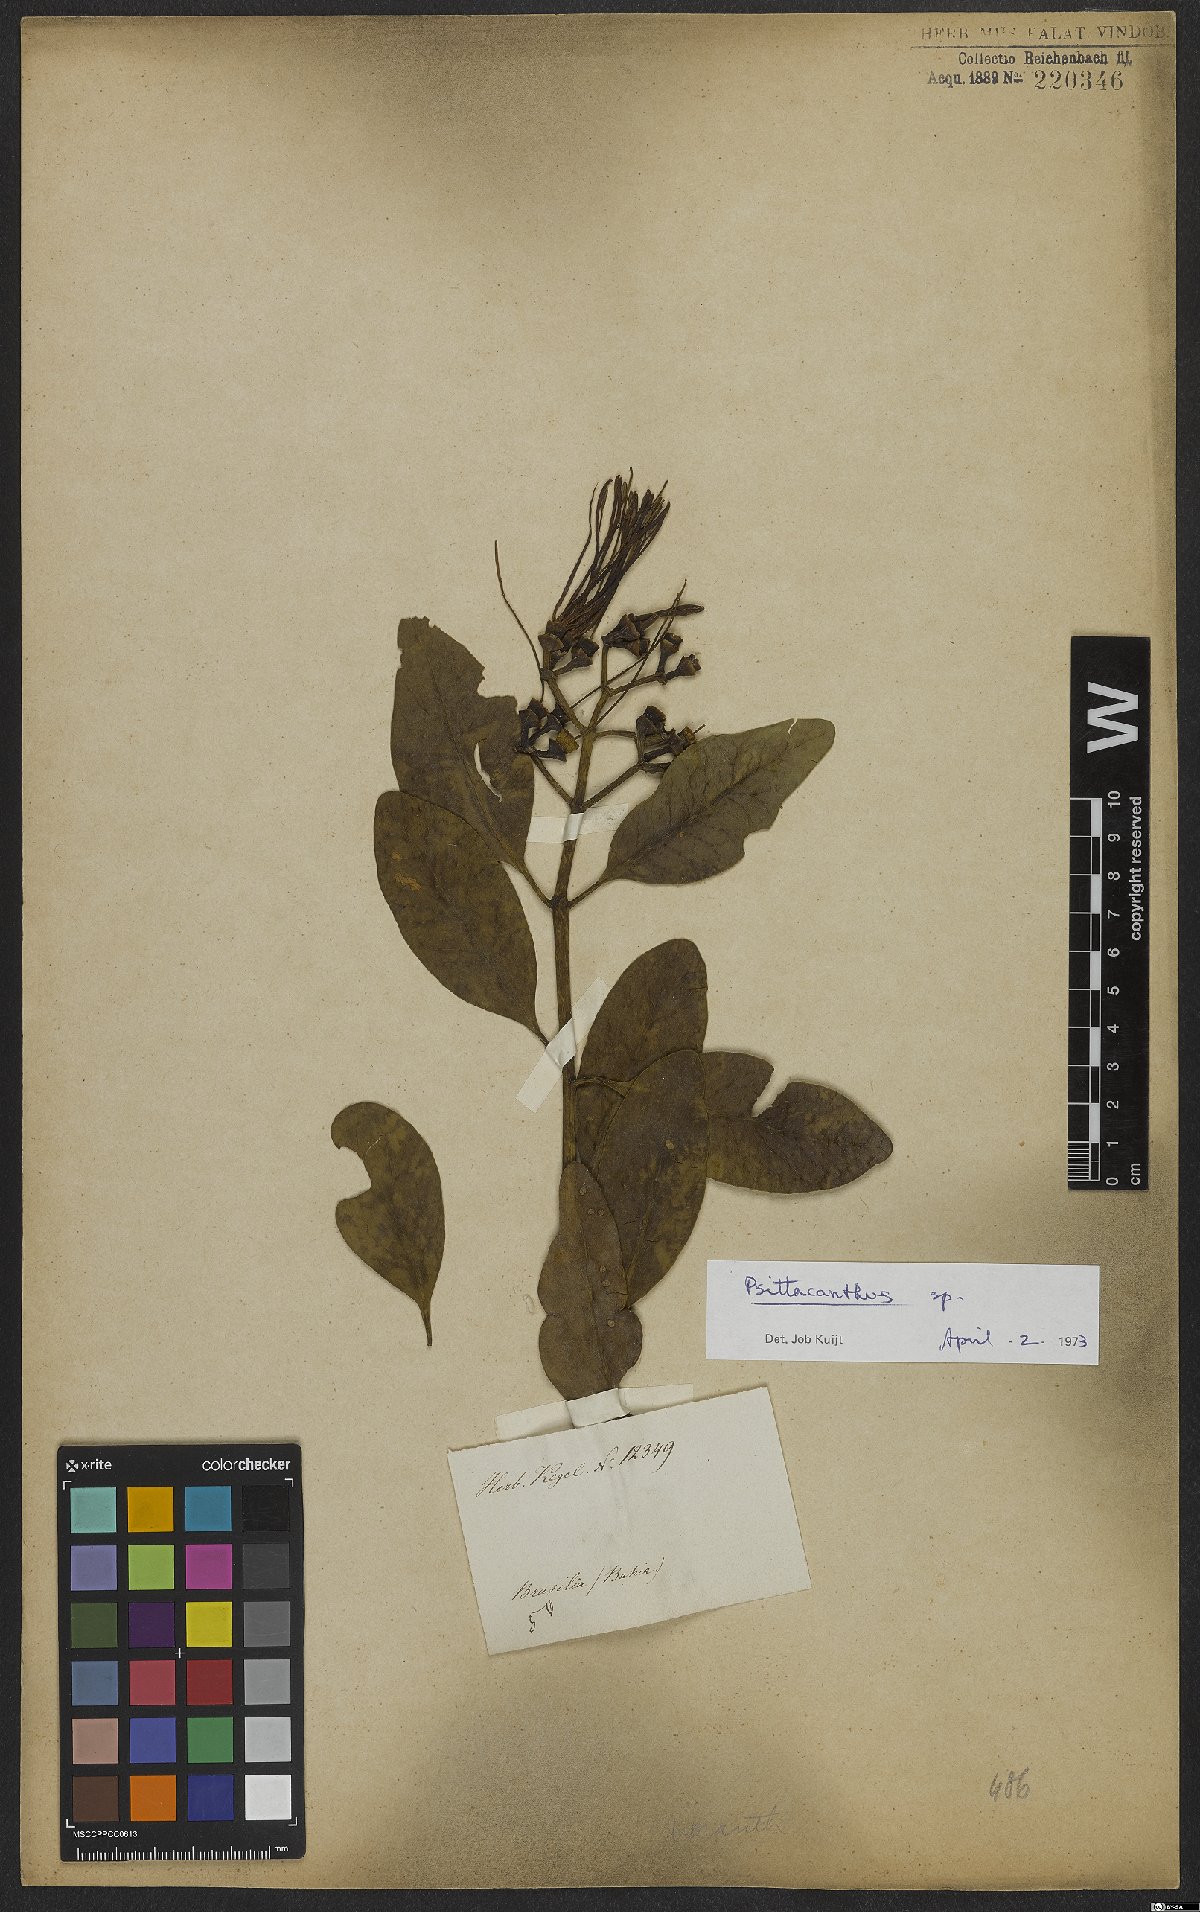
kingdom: Plantae
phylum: Tracheophyta
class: Magnoliopsida
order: Santalales
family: Loranthaceae
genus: Psittacanthus
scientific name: Psittacanthus
